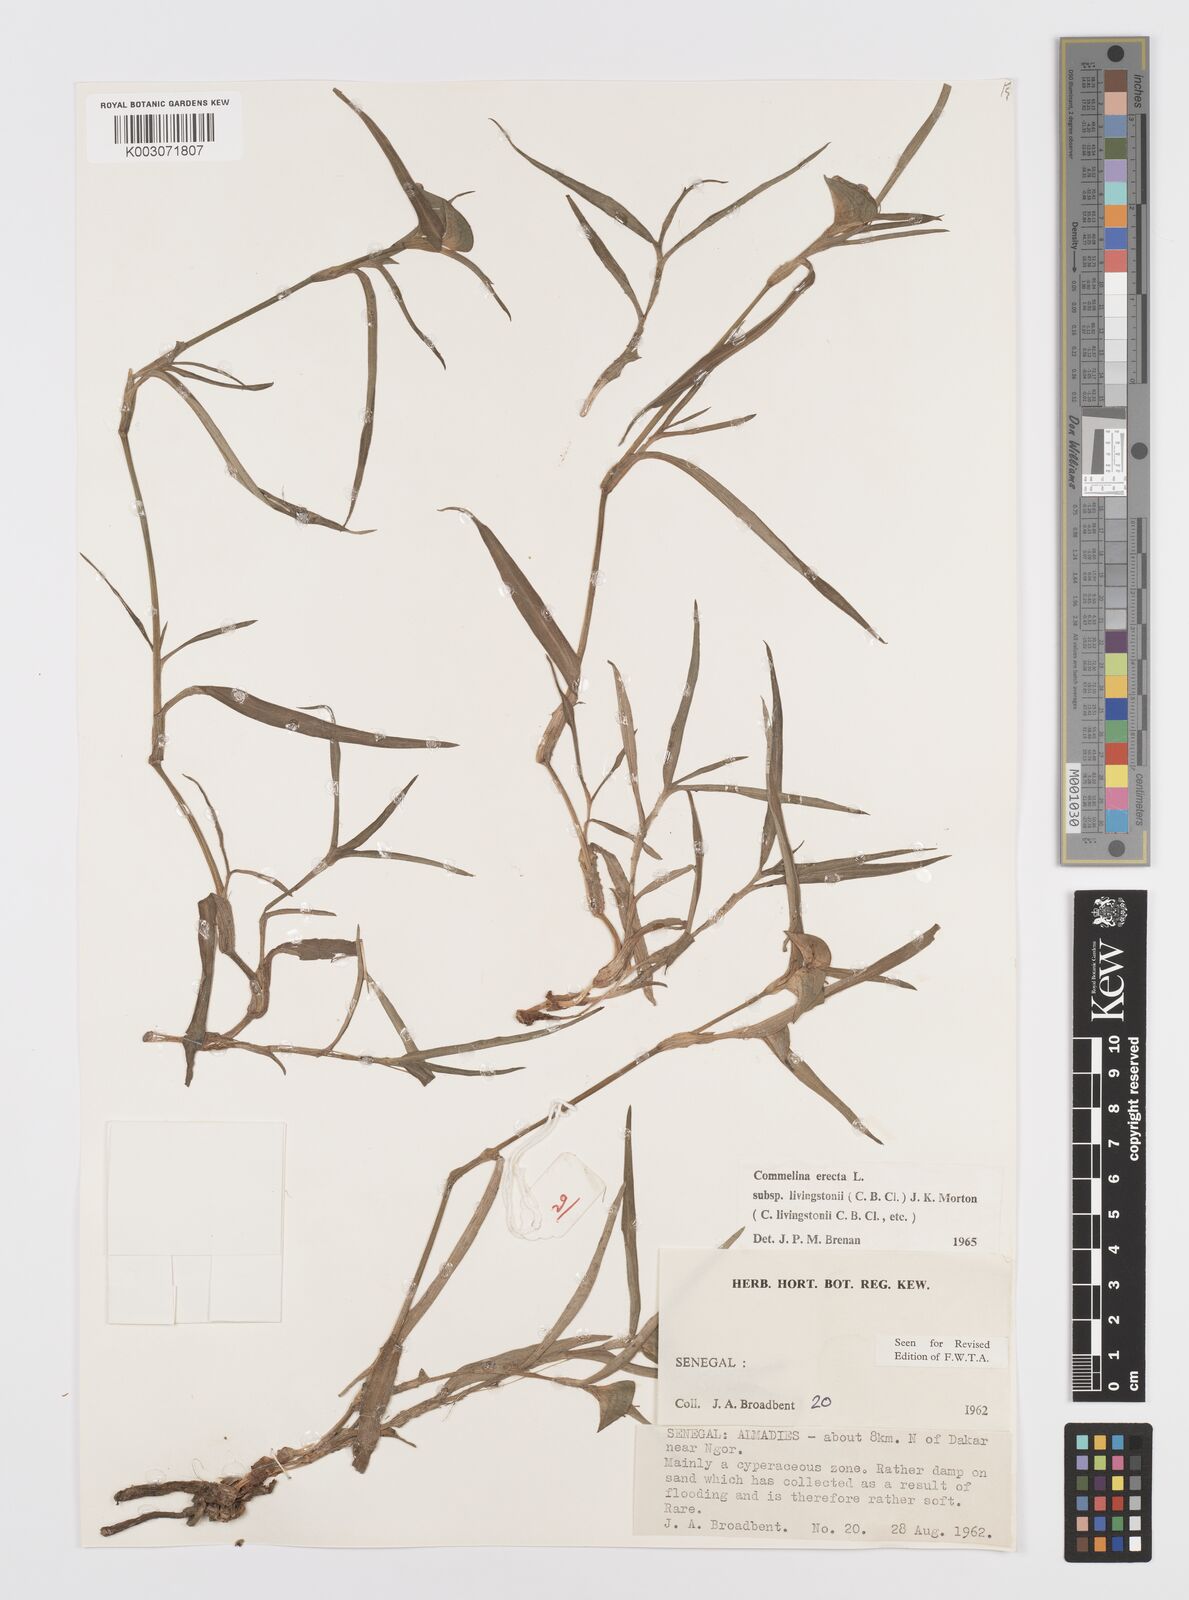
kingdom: Plantae
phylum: Tracheophyta
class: Liliopsida
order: Commelinales
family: Commelinaceae
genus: Commelina
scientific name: Commelina erecta
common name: Blousel blommetjie
